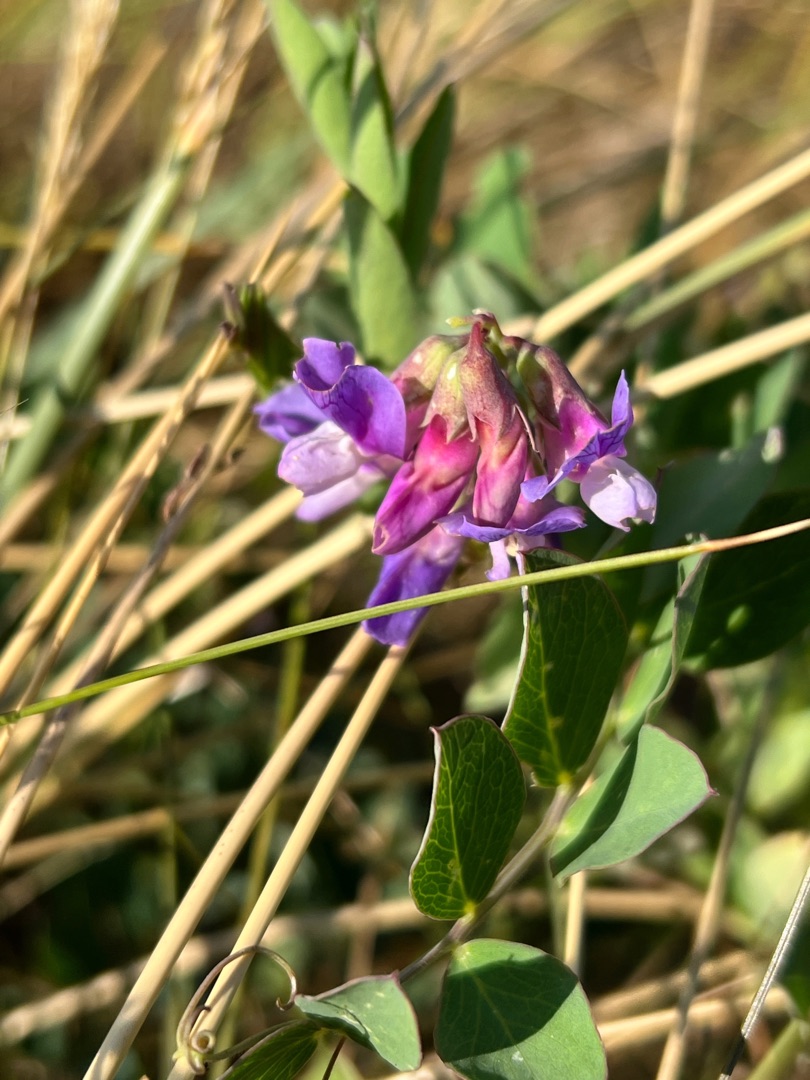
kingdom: Plantae
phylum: Tracheophyta
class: Magnoliopsida
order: Fabales
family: Fabaceae
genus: Lathyrus
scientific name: Lathyrus japonicus
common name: Strand-fladbælg
